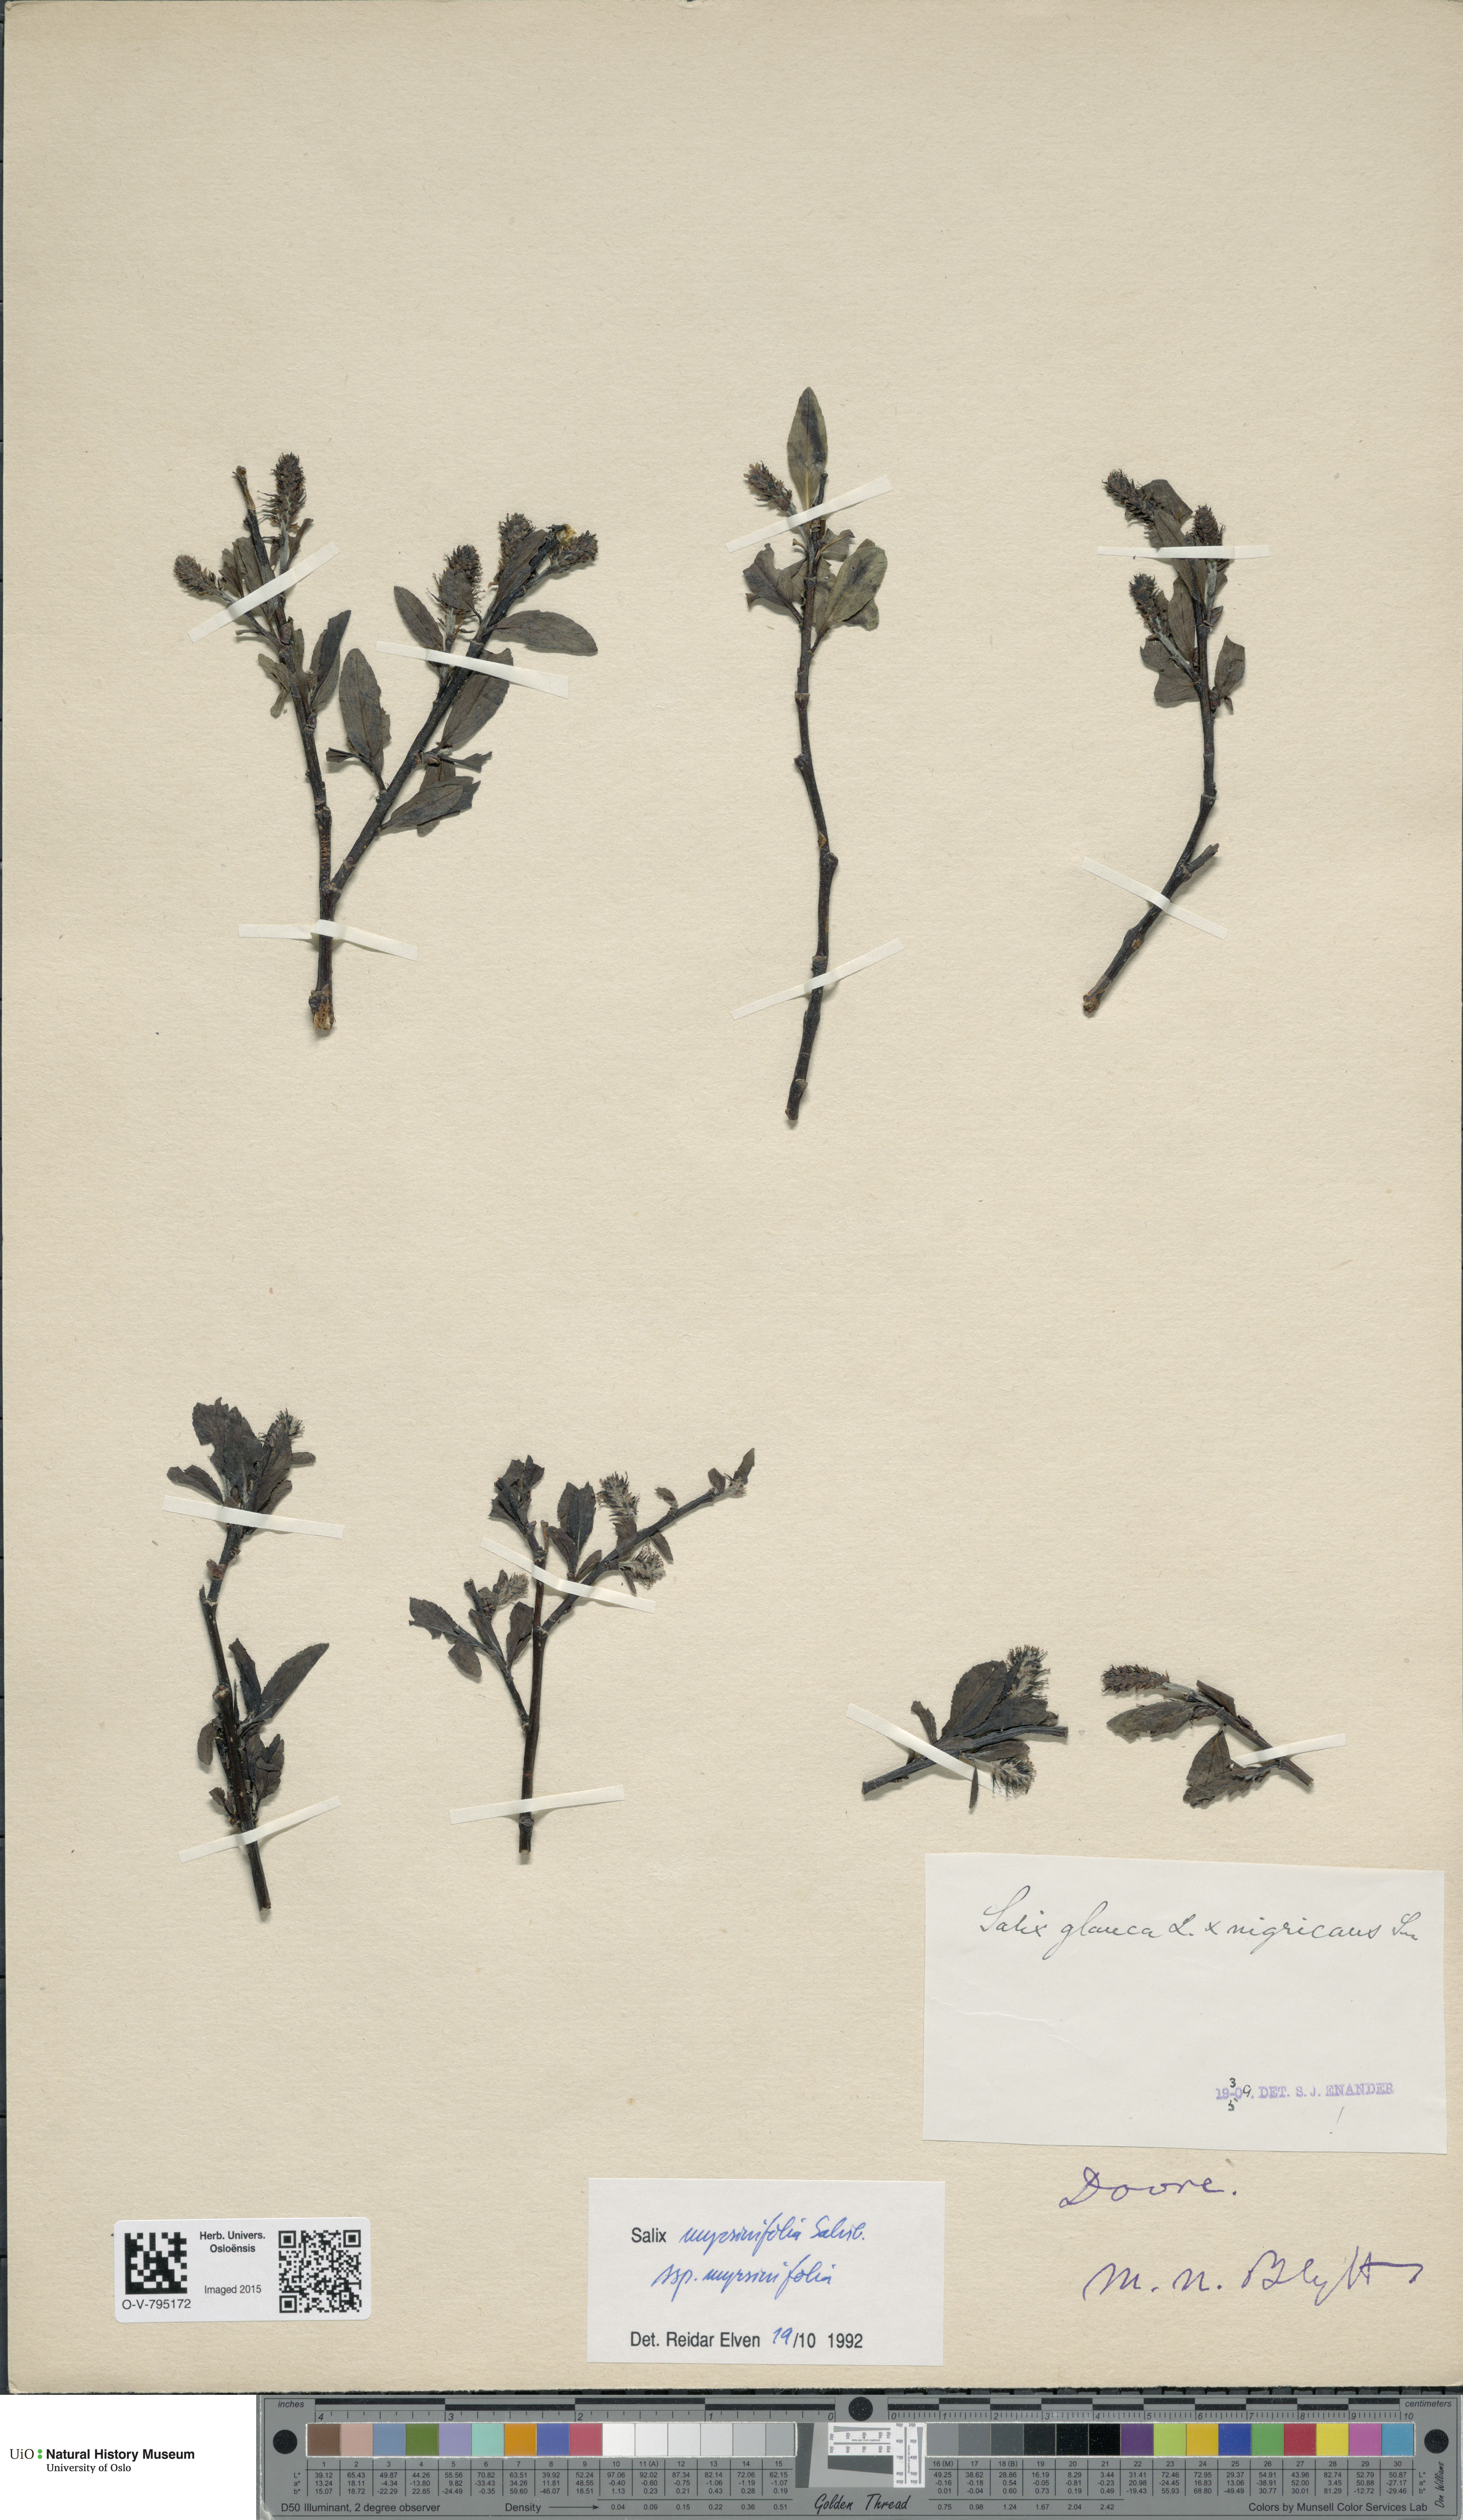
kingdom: Plantae
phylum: Tracheophyta
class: Magnoliopsida
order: Malpighiales
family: Salicaceae
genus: Salix
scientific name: Salix myrsinifolia
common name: Dark-leaved willow
